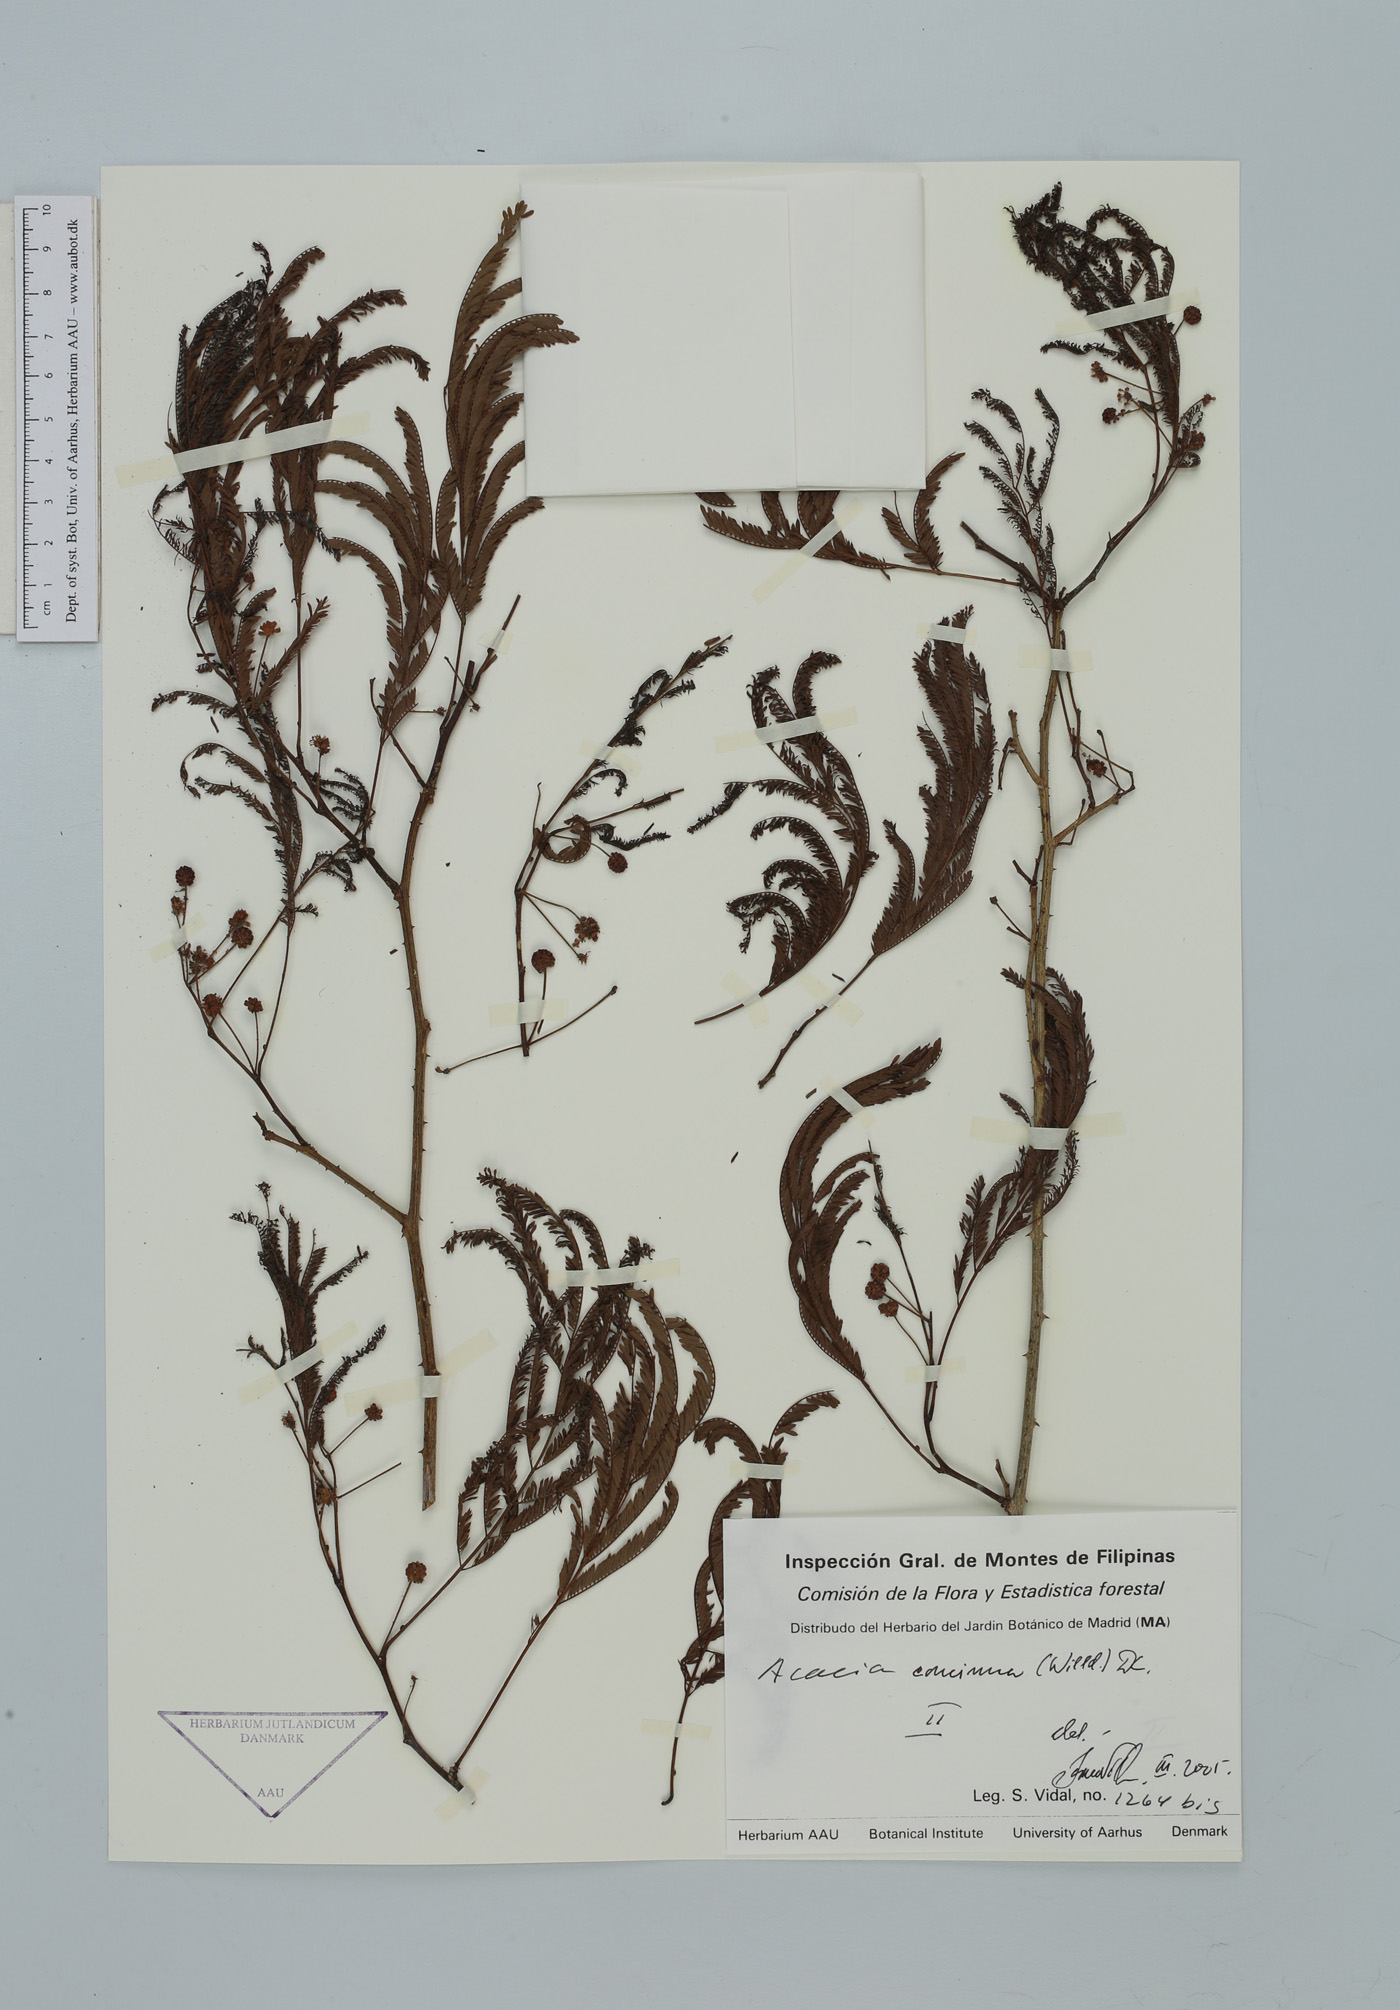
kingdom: Plantae
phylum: Tracheophyta
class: Magnoliopsida
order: Fabales
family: Fabaceae
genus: Senegalia
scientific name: Senegalia rugata
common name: Soap-pod
